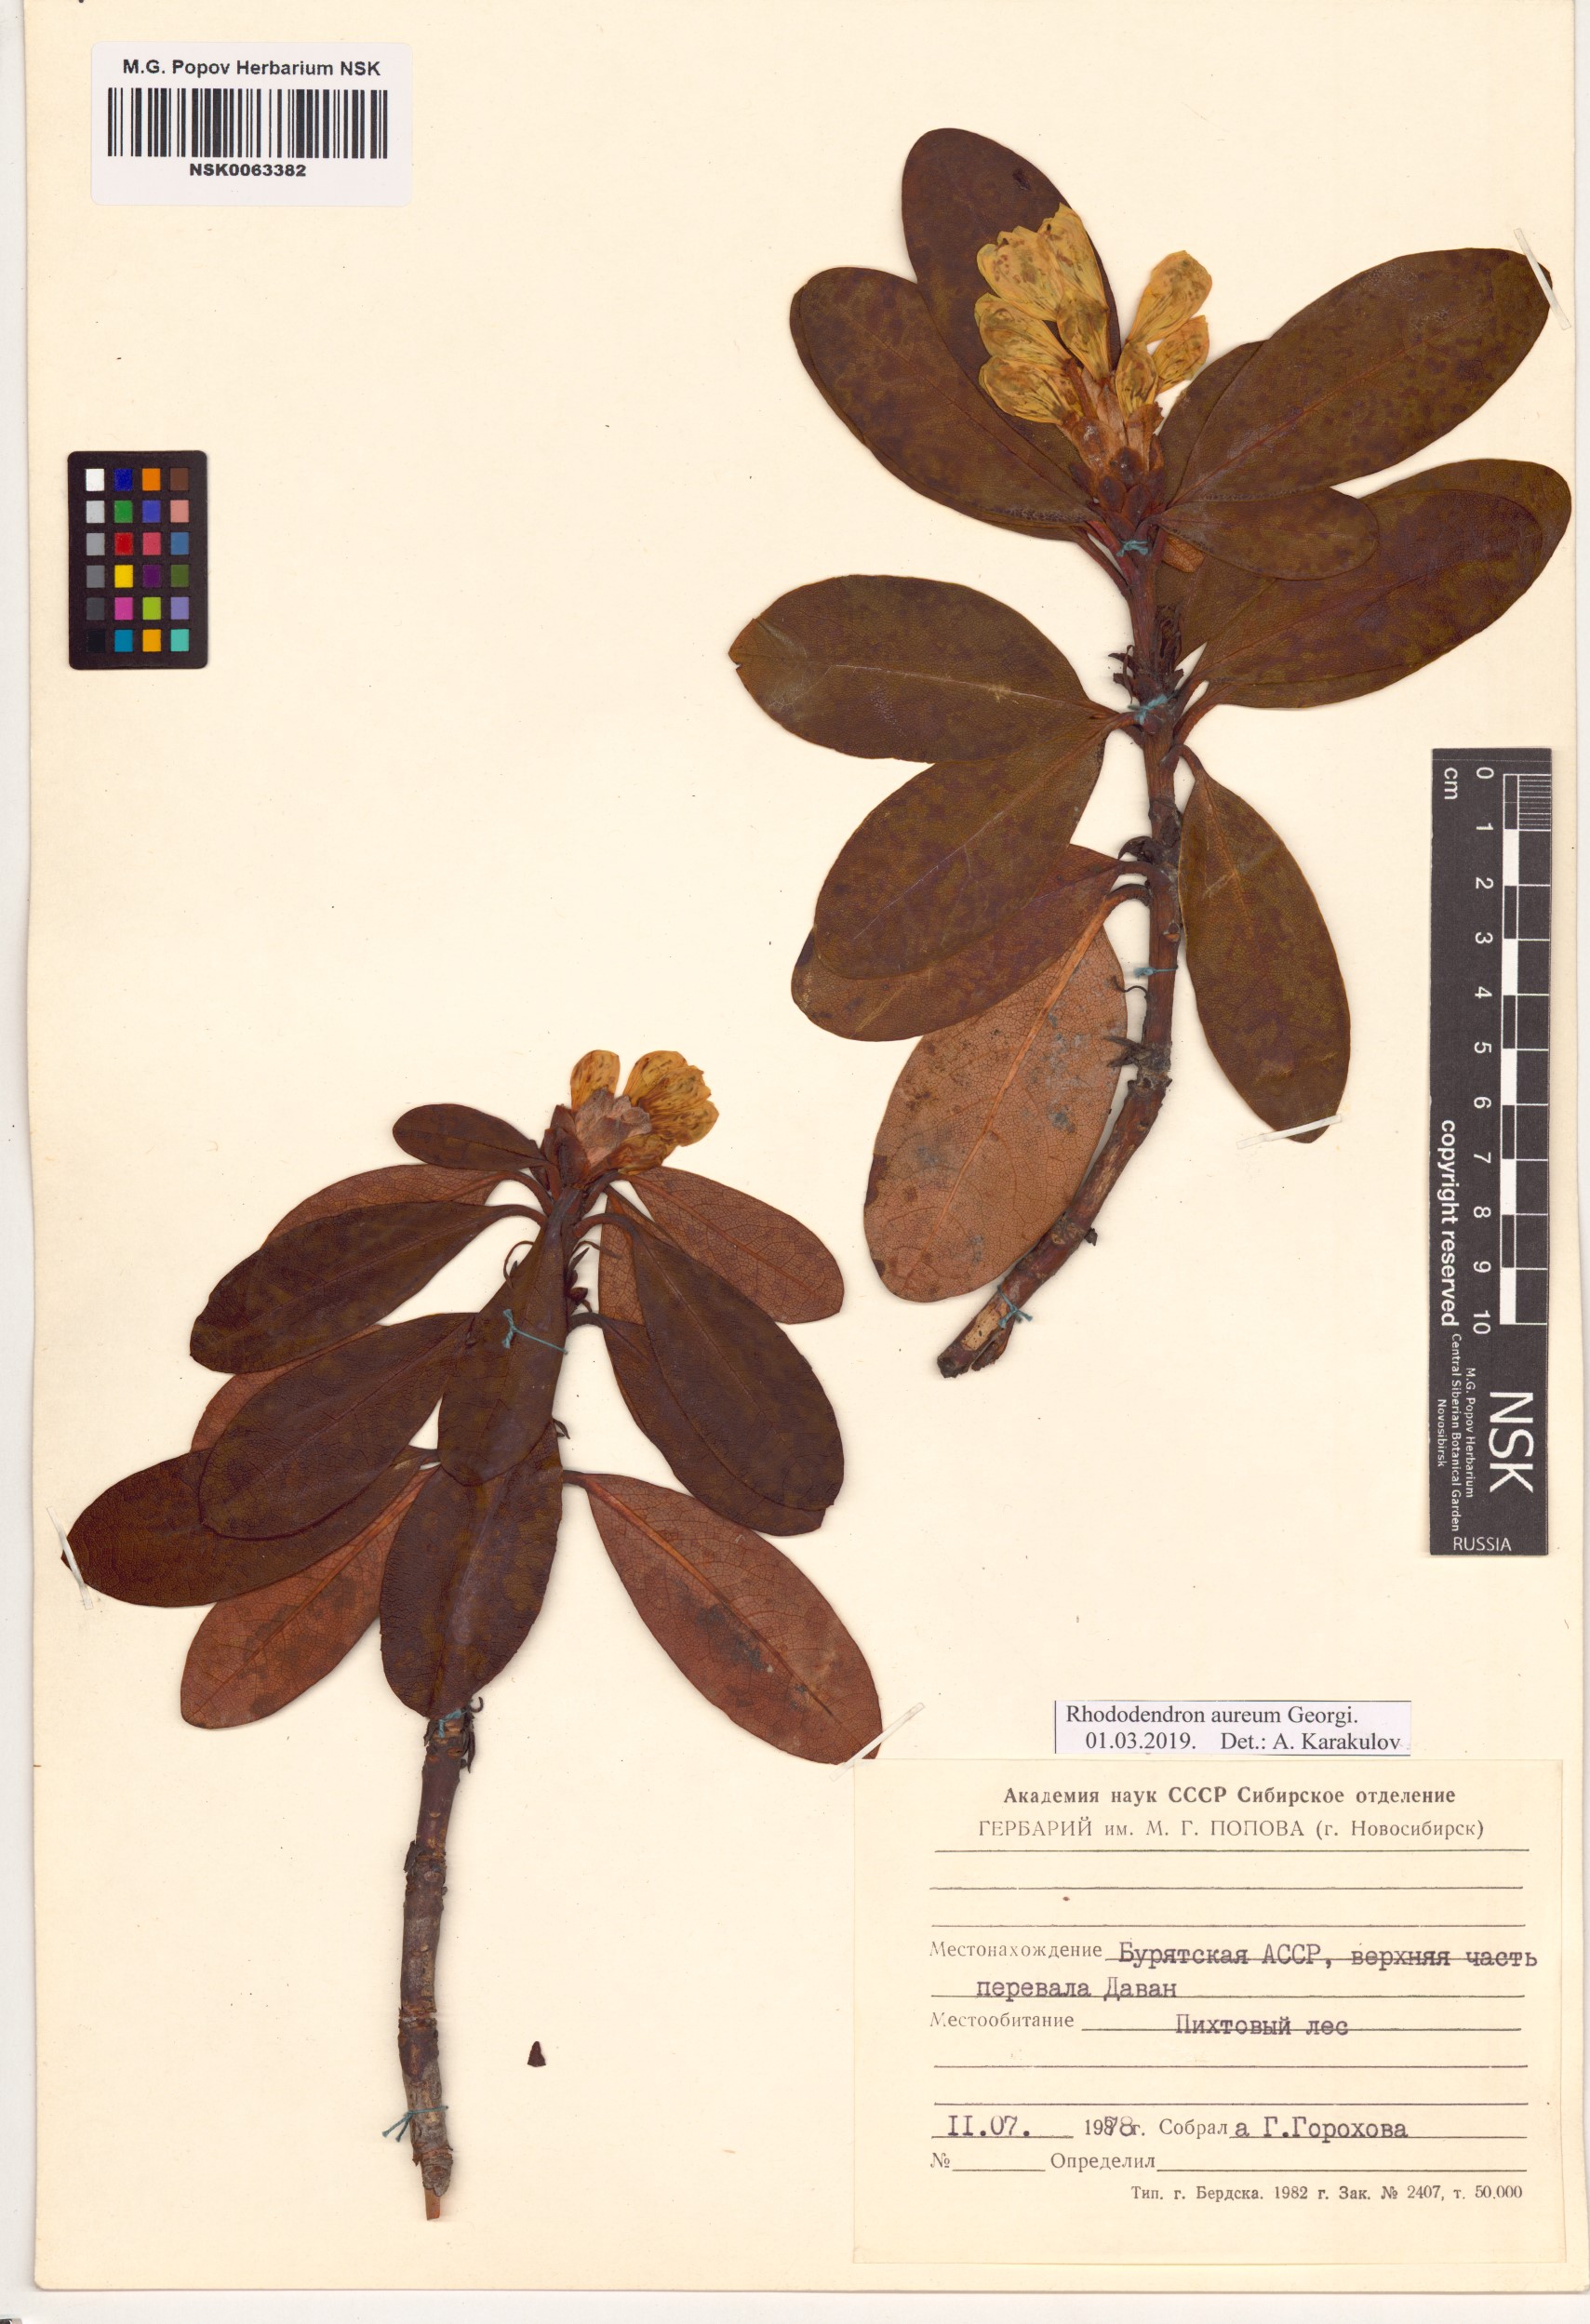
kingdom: Plantae
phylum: Tracheophyta
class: Magnoliopsida
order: Ericales
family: Ericaceae
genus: Rhododendron
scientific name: Rhododendron aureum
